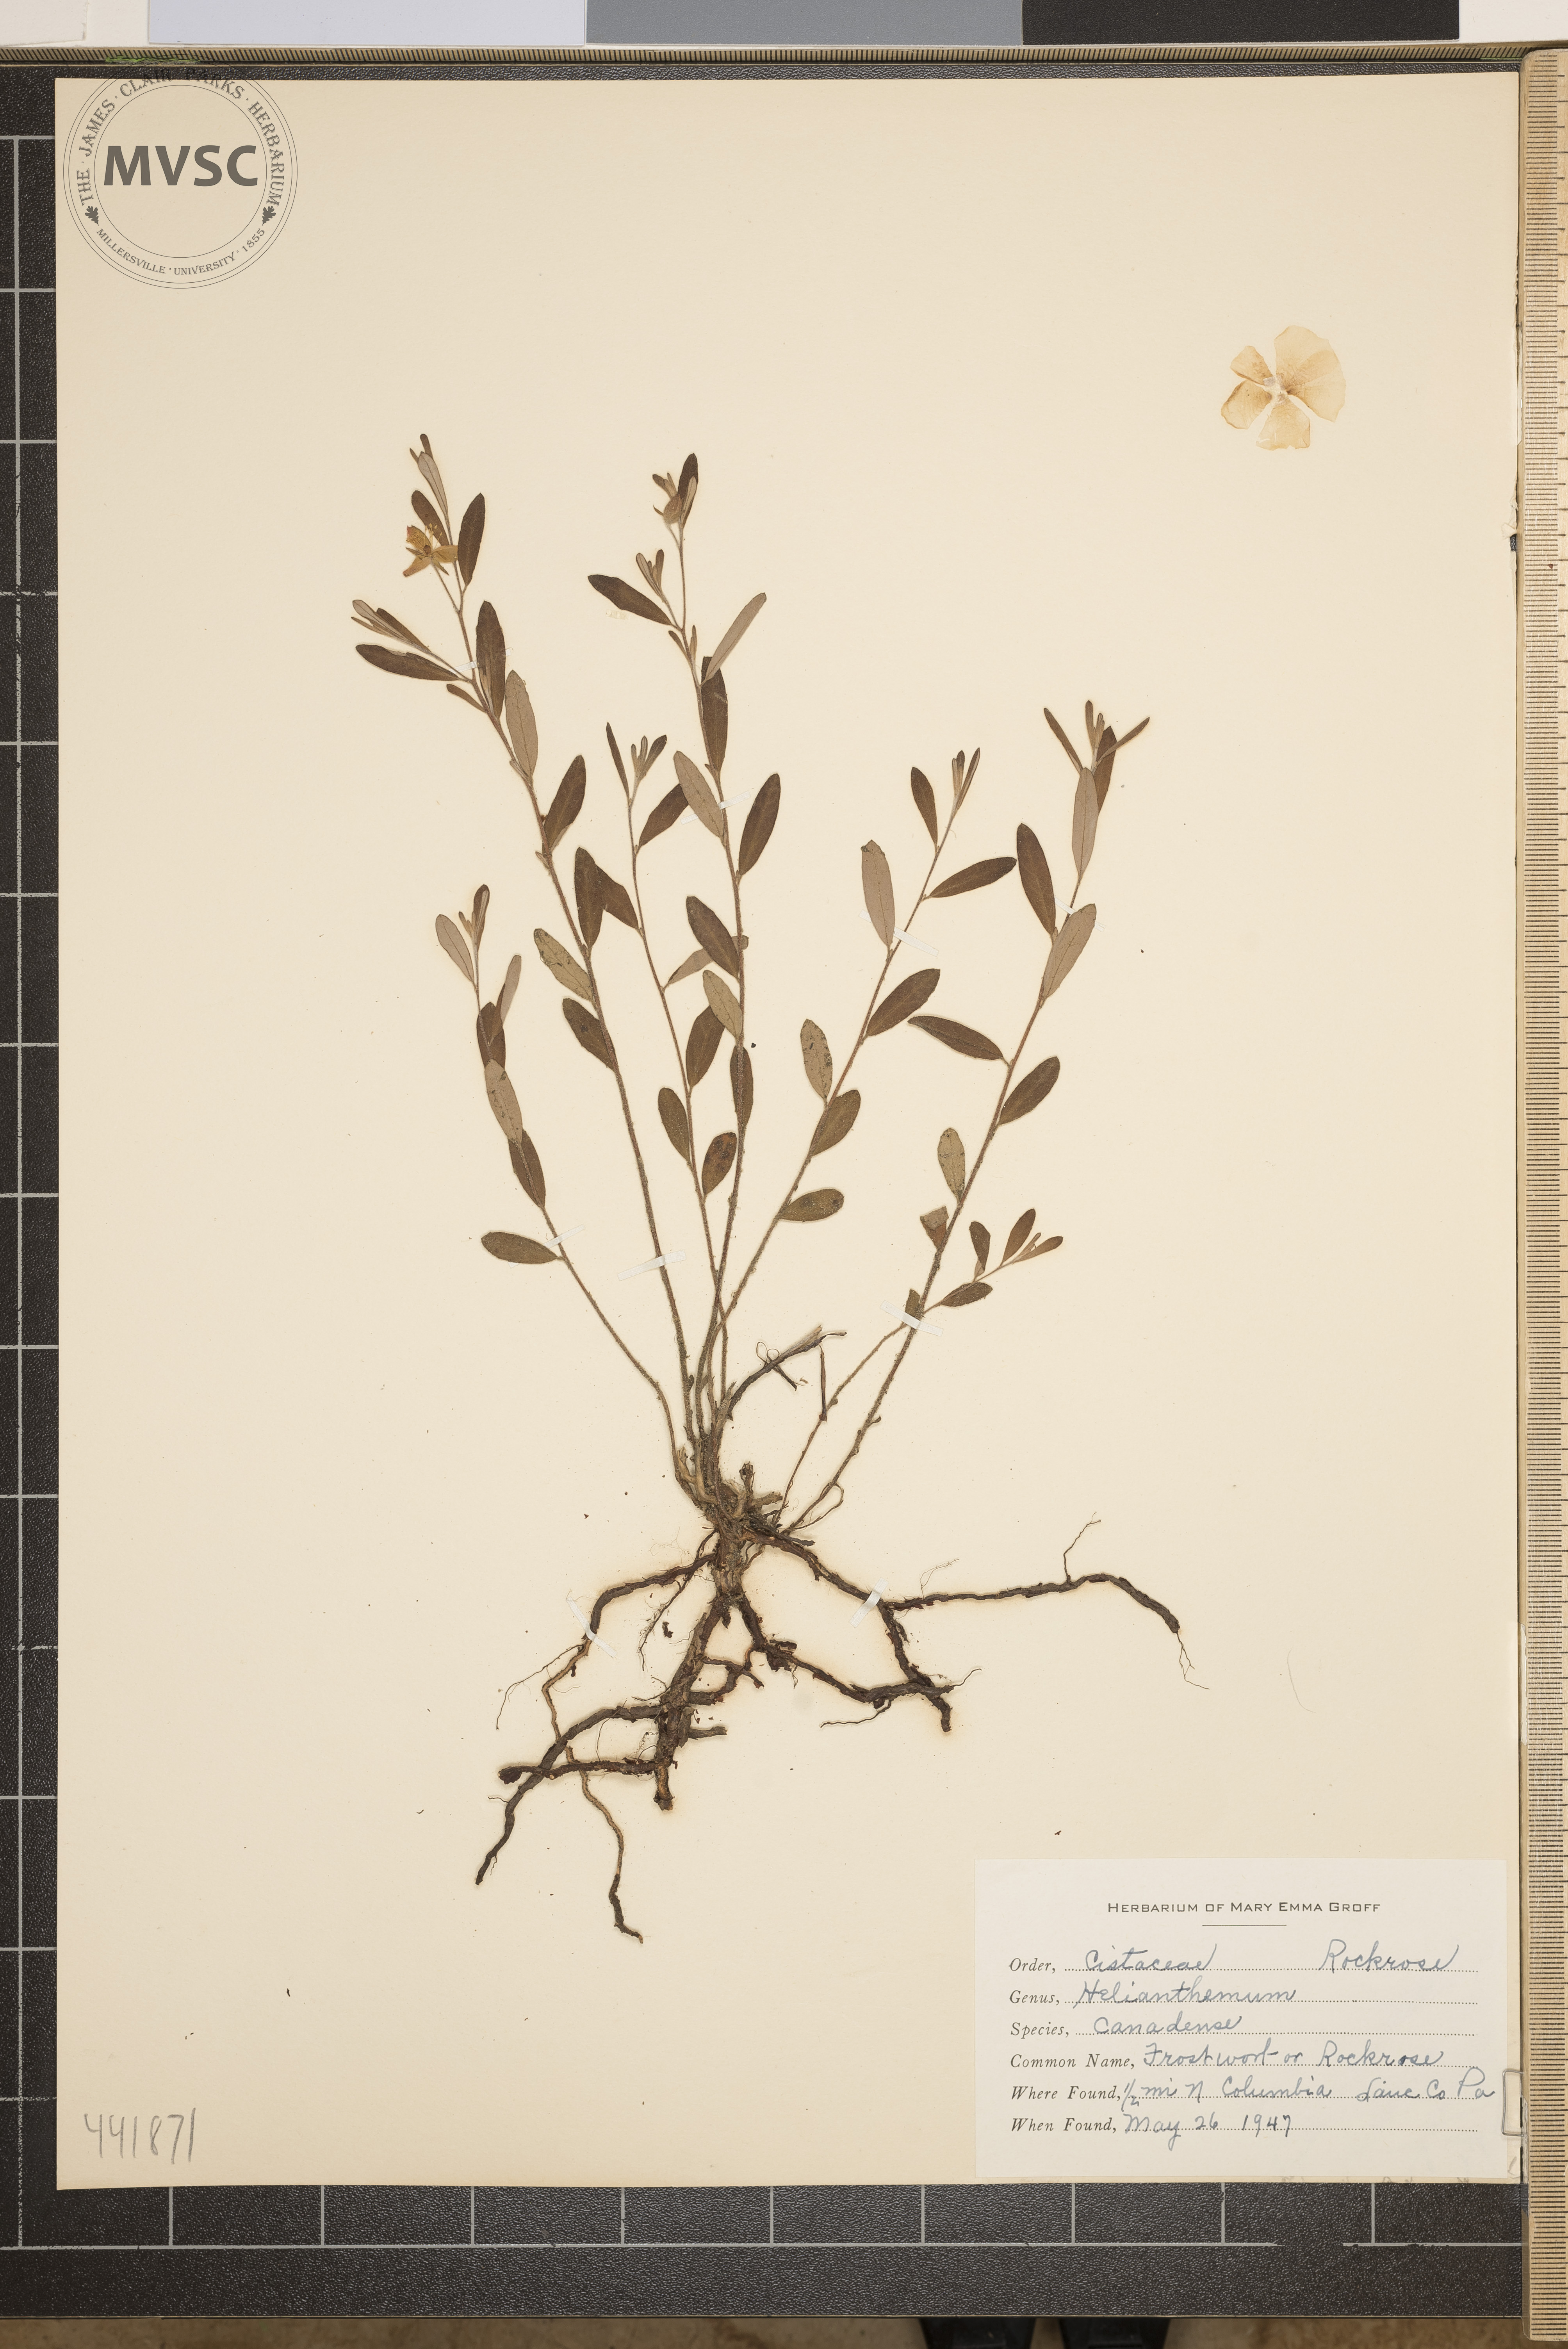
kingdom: Plantae
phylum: Tracheophyta
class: Magnoliopsida
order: Malvales
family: Cistaceae
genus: Crocanthemum
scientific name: Crocanthemum canadense
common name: Frostweed
